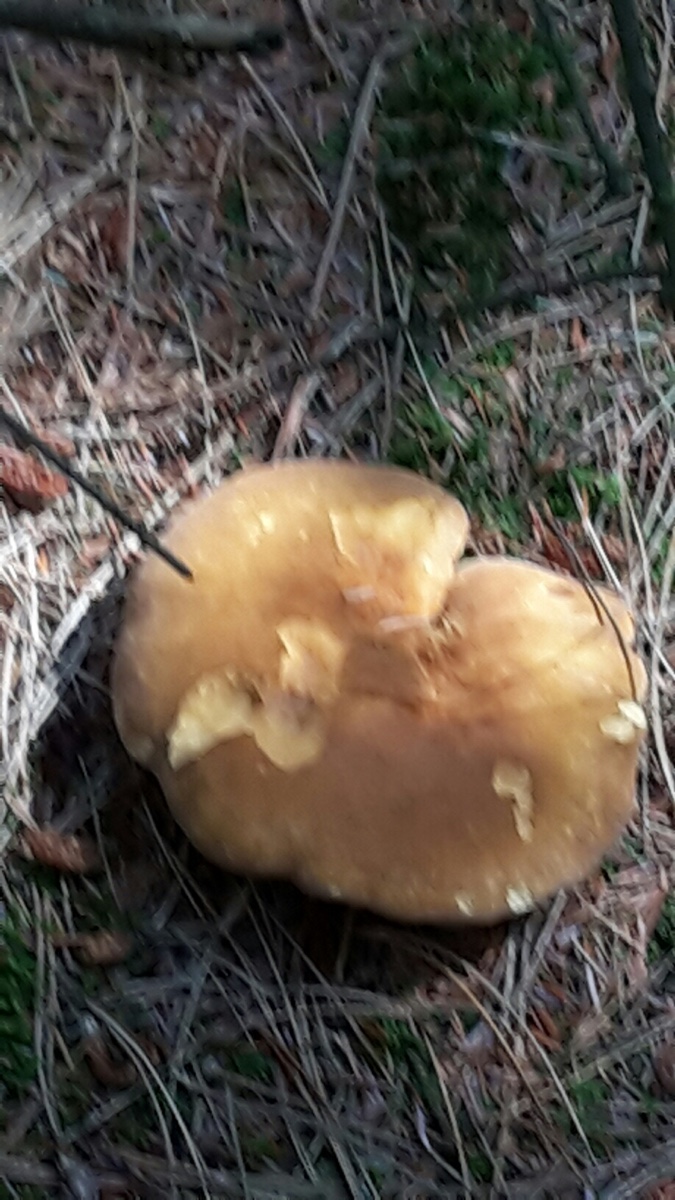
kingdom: Fungi
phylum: Basidiomycota
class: Agaricomycetes
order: Boletales
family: Tapinellaceae
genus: Tapinella
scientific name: Tapinella atrotomentosa
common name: sortfiltet viftesvamp
